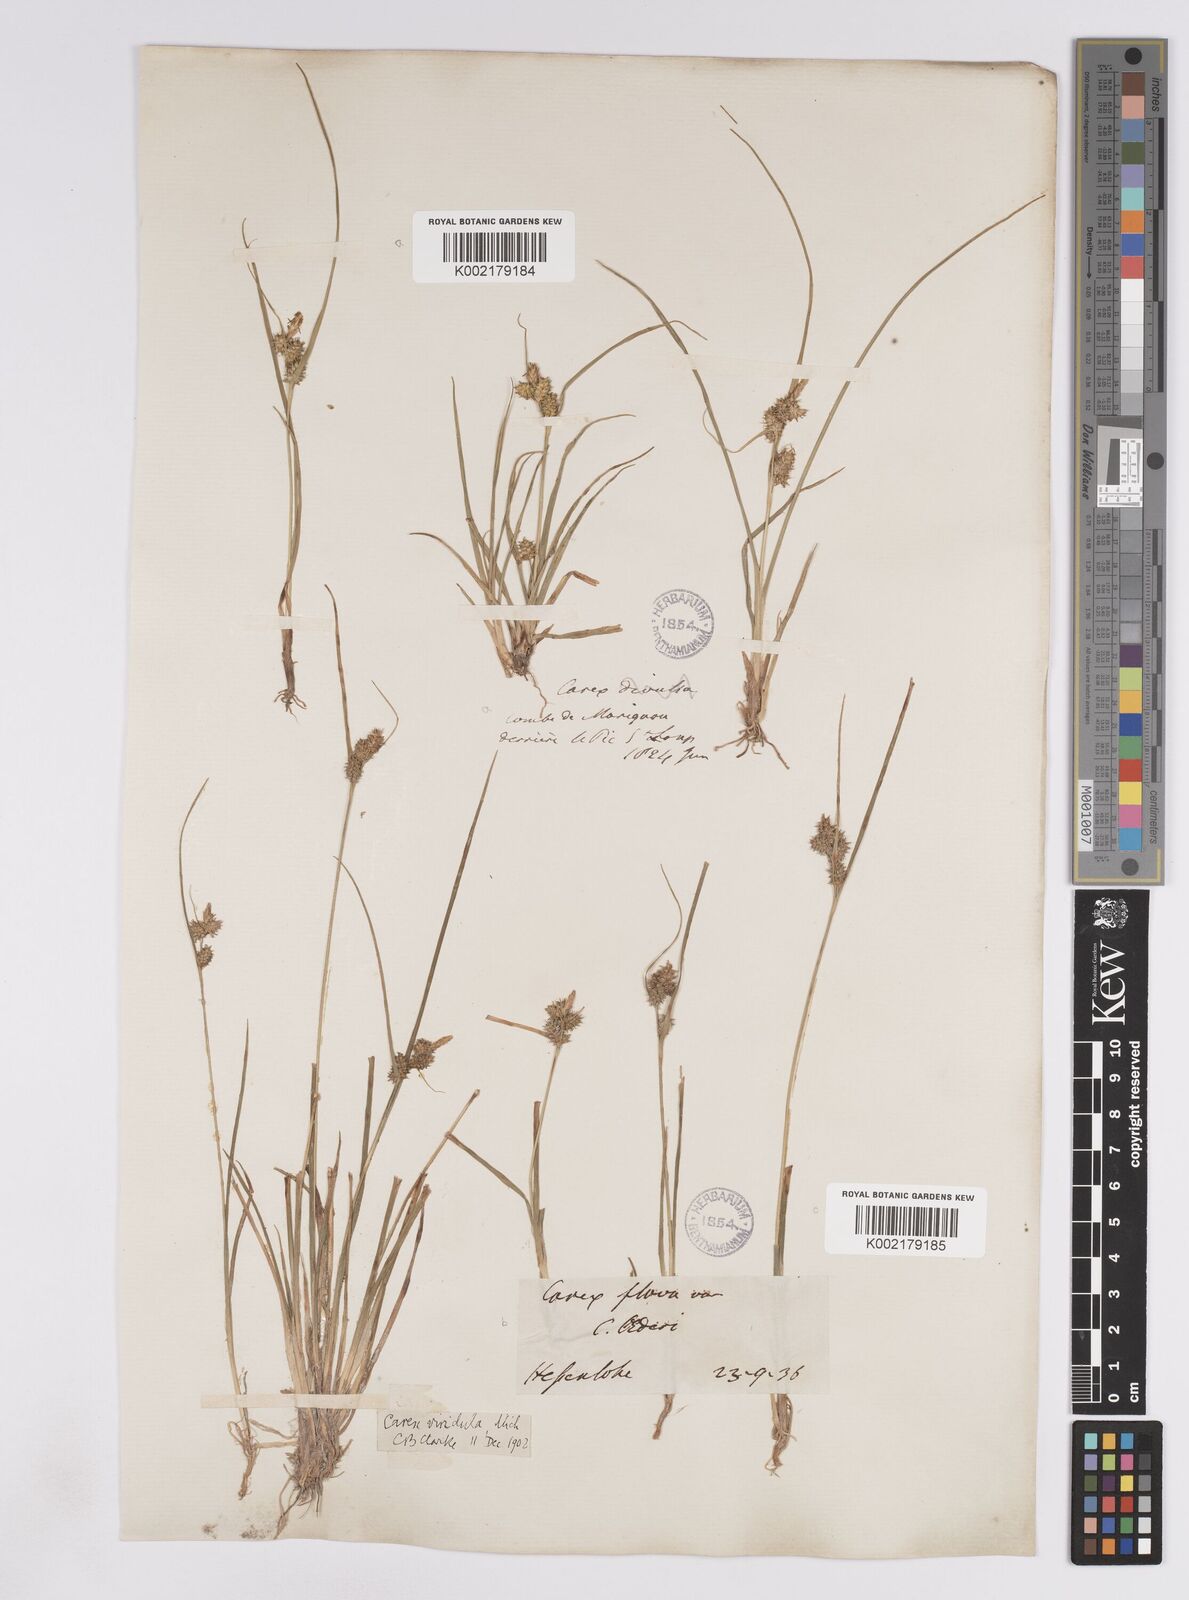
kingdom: Plantae
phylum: Tracheophyta
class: Liliopsida
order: Poales
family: Cyperaceae
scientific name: Cyperaceae
